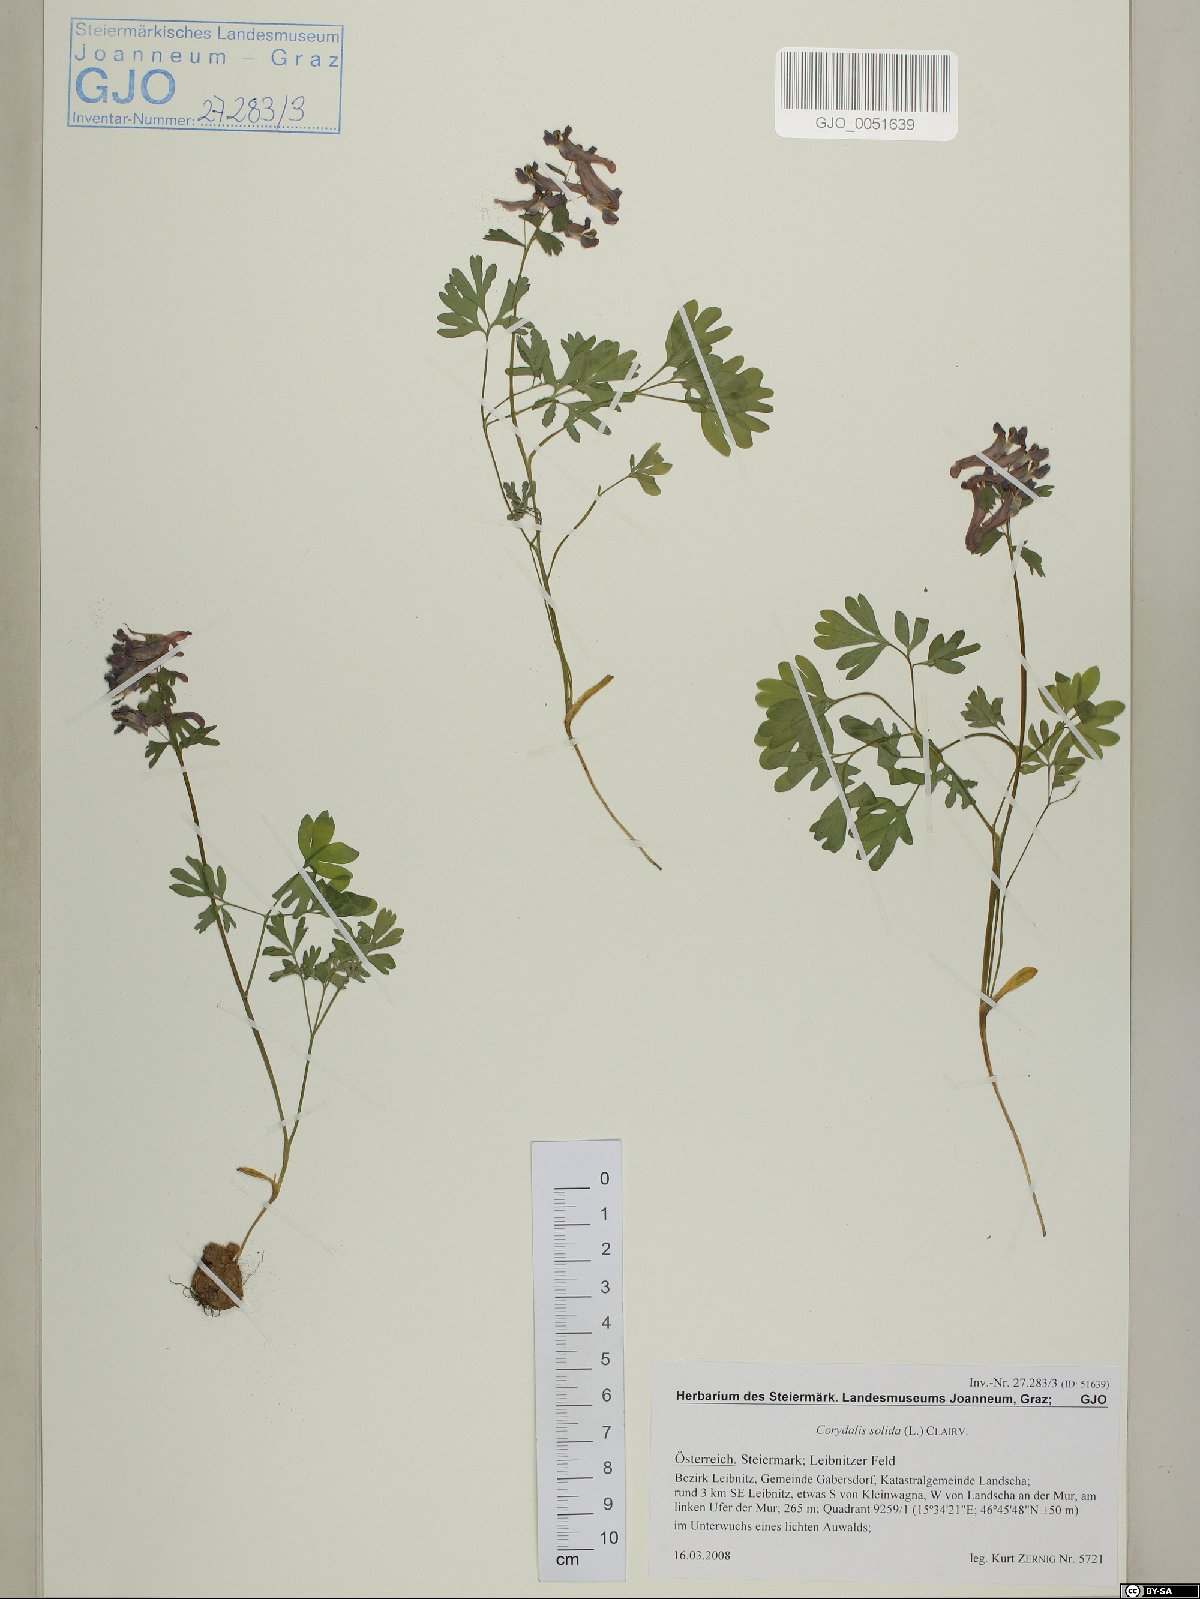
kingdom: Plantae
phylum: Tracheophyta
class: Magnoliopsida
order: Ranunculales
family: Papaveraceae
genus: Corydalis
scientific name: Corydalis solida
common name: Bird-in-a-bush
